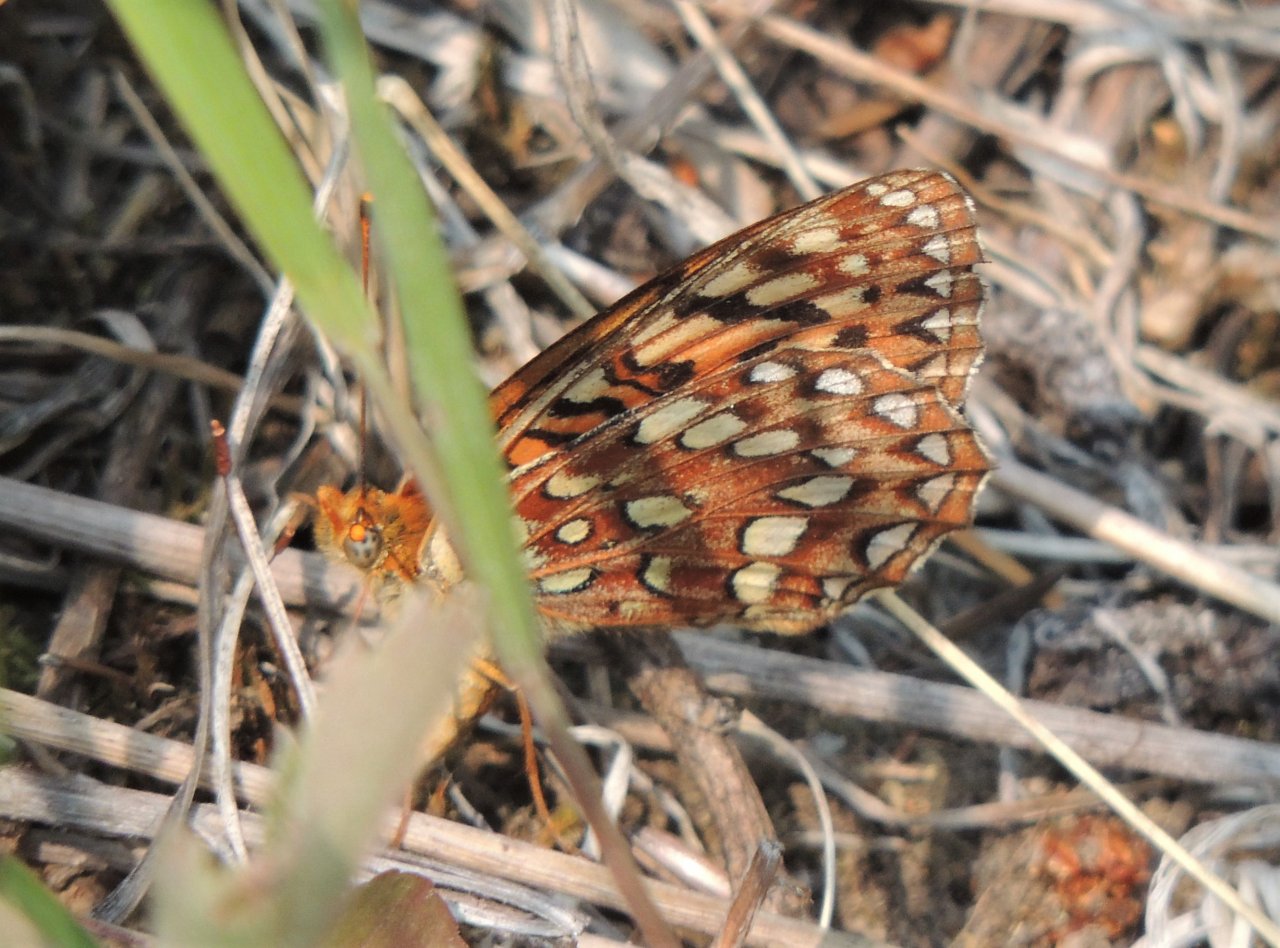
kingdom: Animalia
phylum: Arthropoda
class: Insecta
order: Lepidoptera
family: Nymphalidae
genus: Speyeria
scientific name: Speyeria hydaspe
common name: Hydaspe Fritillary
